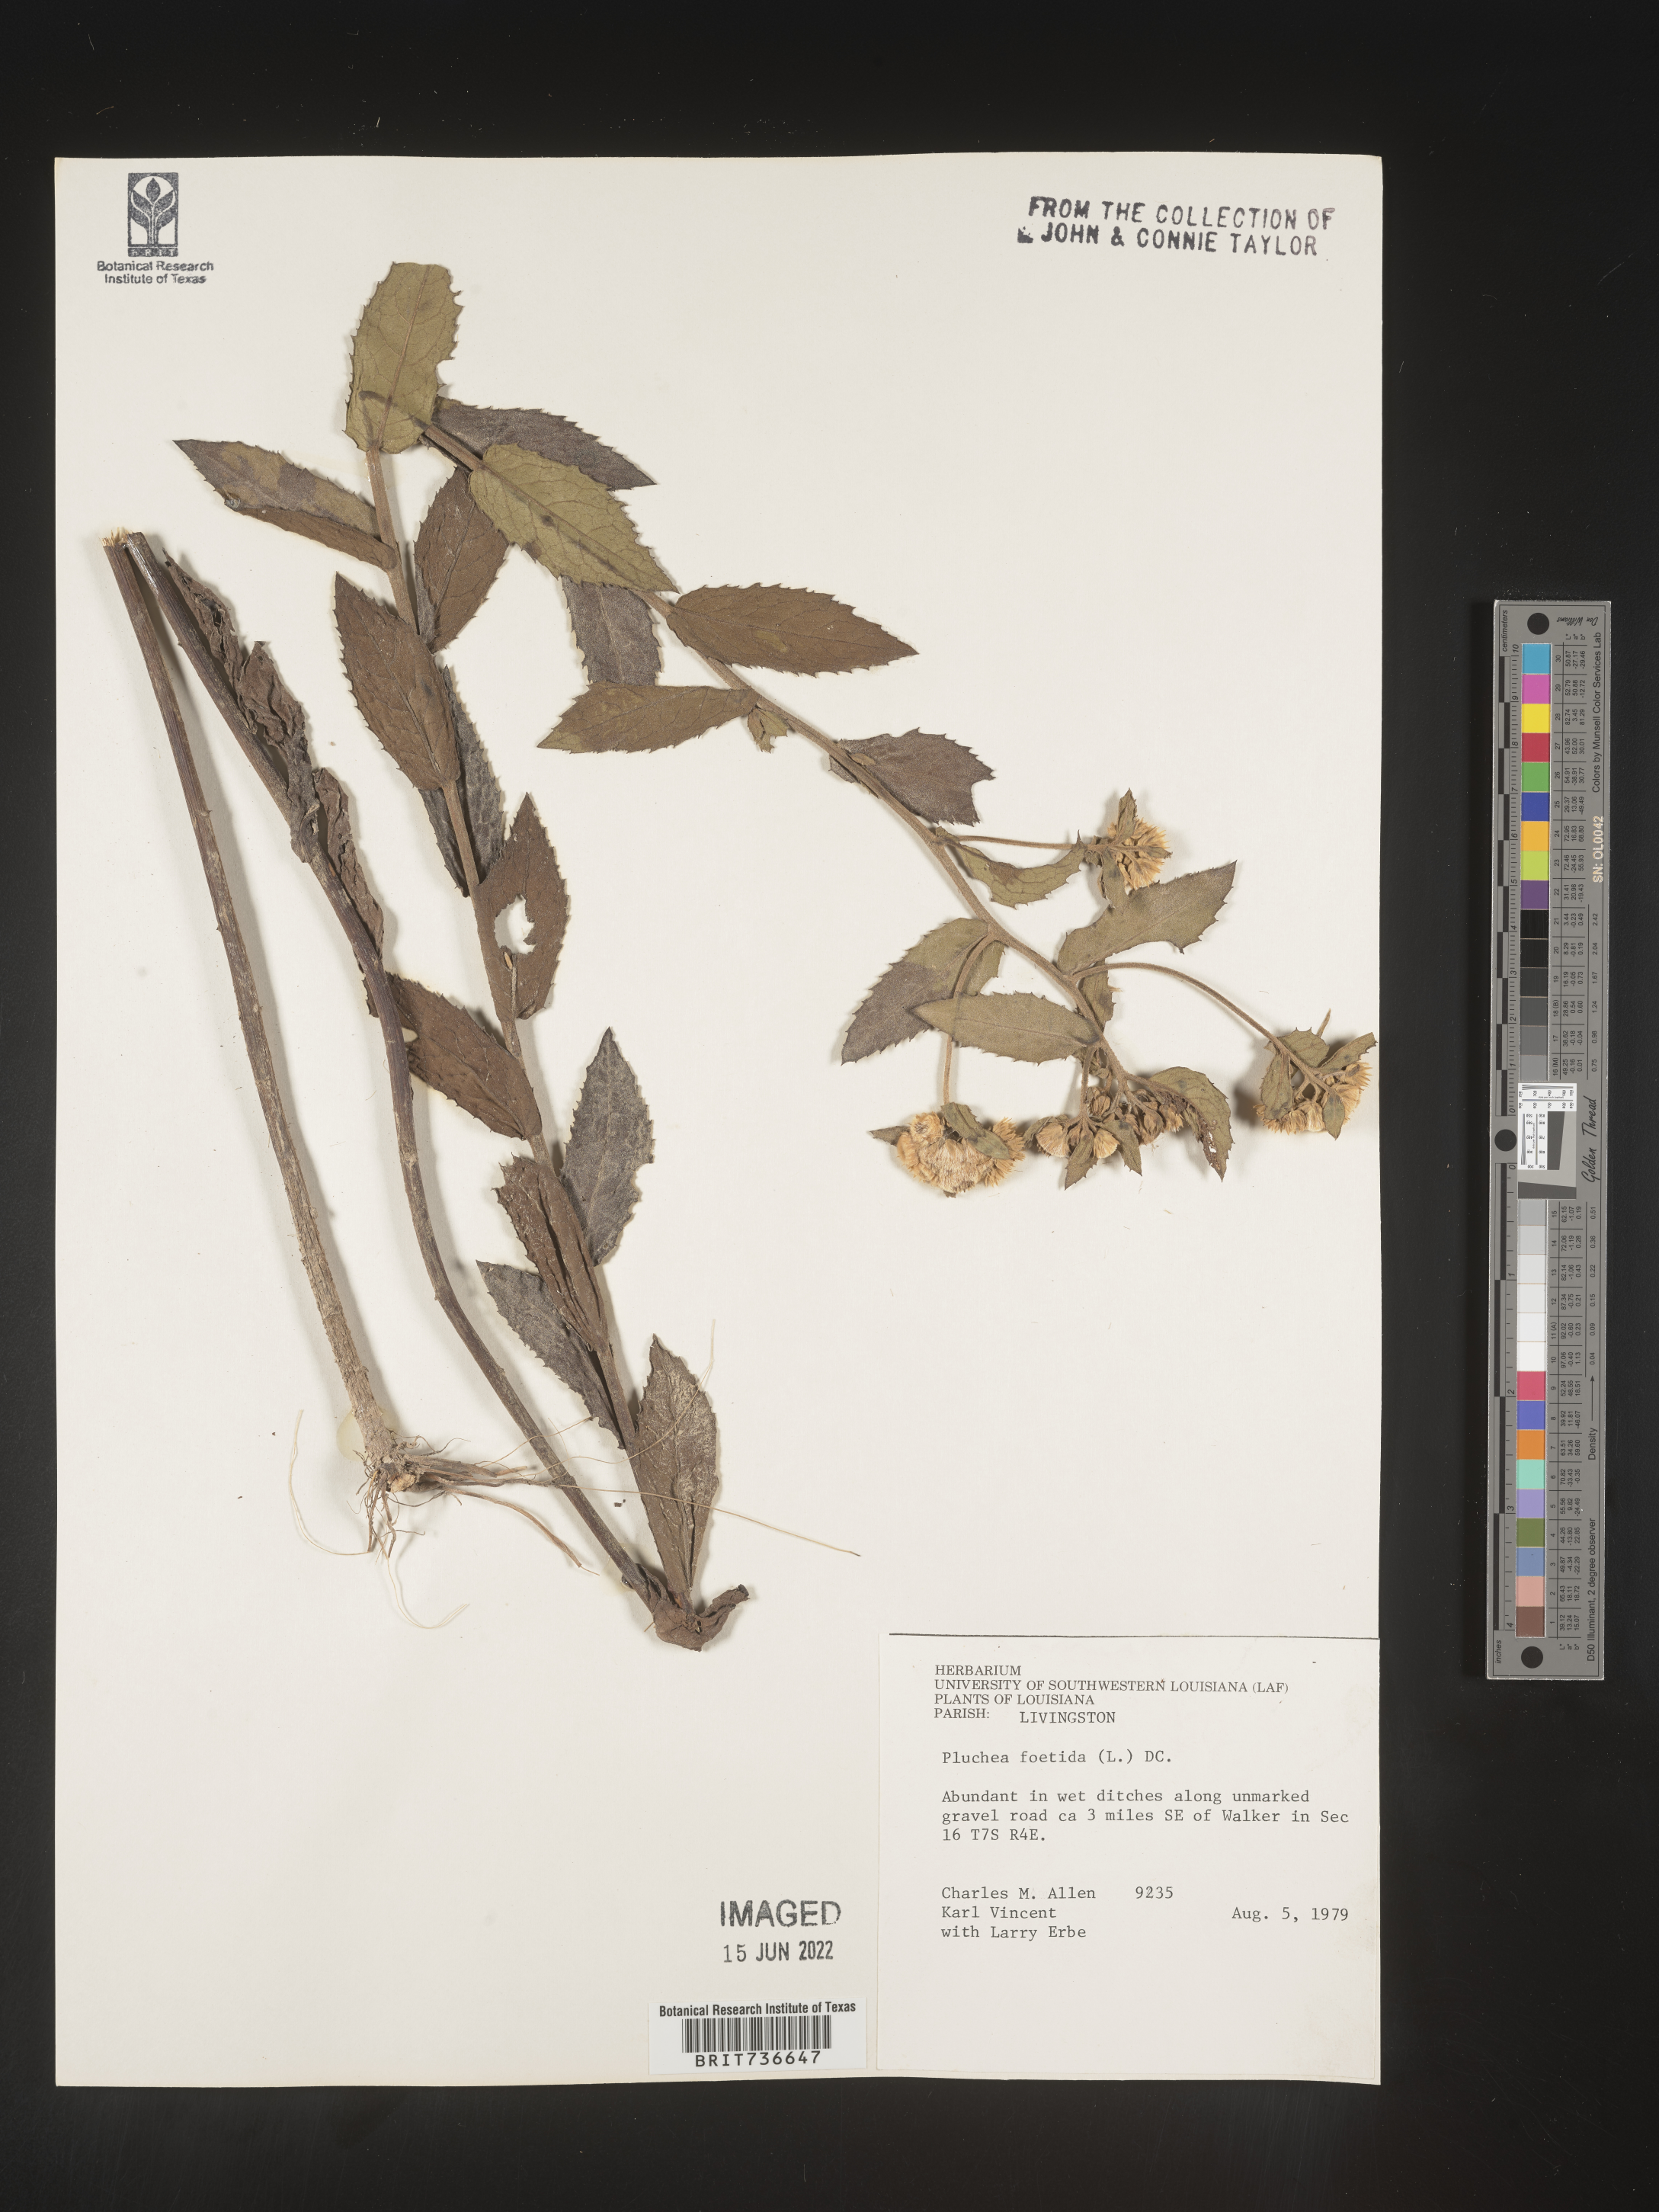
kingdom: Plantae
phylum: Tracheophyta
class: Magnoliopsida
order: Asterales
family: Asteraceae
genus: Pluchea
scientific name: Pluchea foetida
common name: Stinking camphorweed
